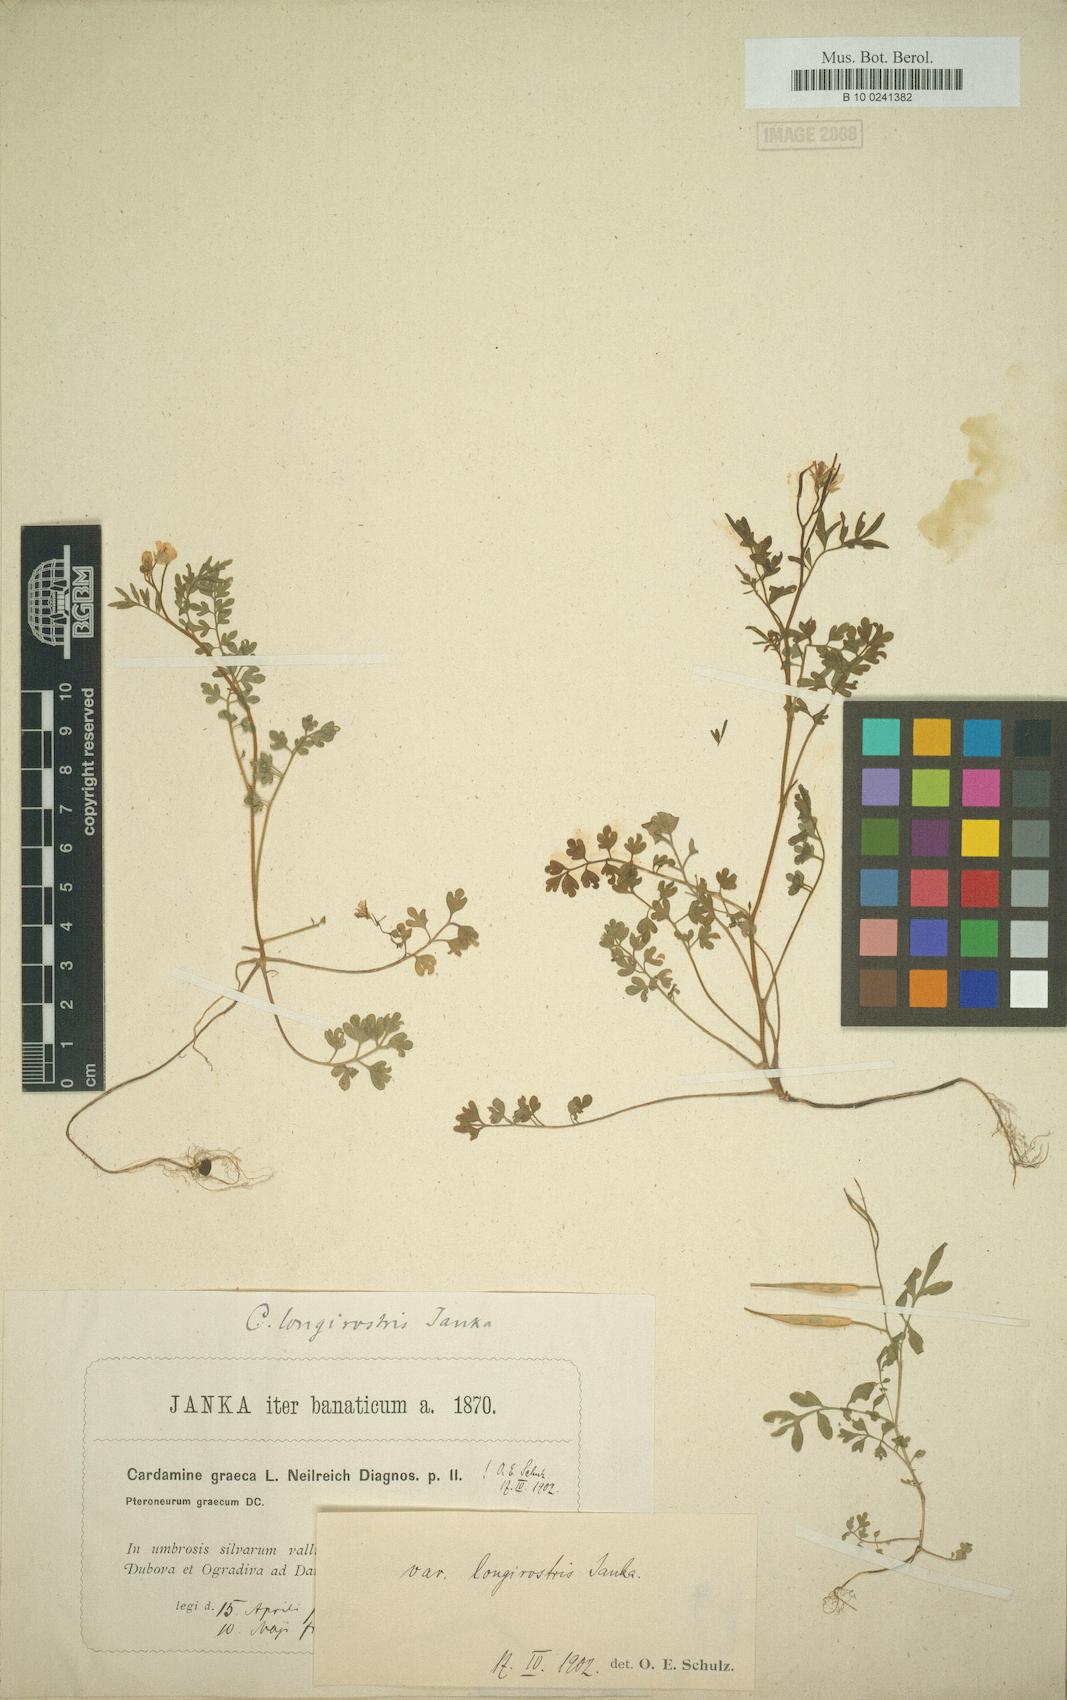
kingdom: Plantae
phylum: Tracheophyta
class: Magnoliopsida
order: Brassicales
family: Brassicaceae
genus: Cardamine
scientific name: Cardamine graeca
